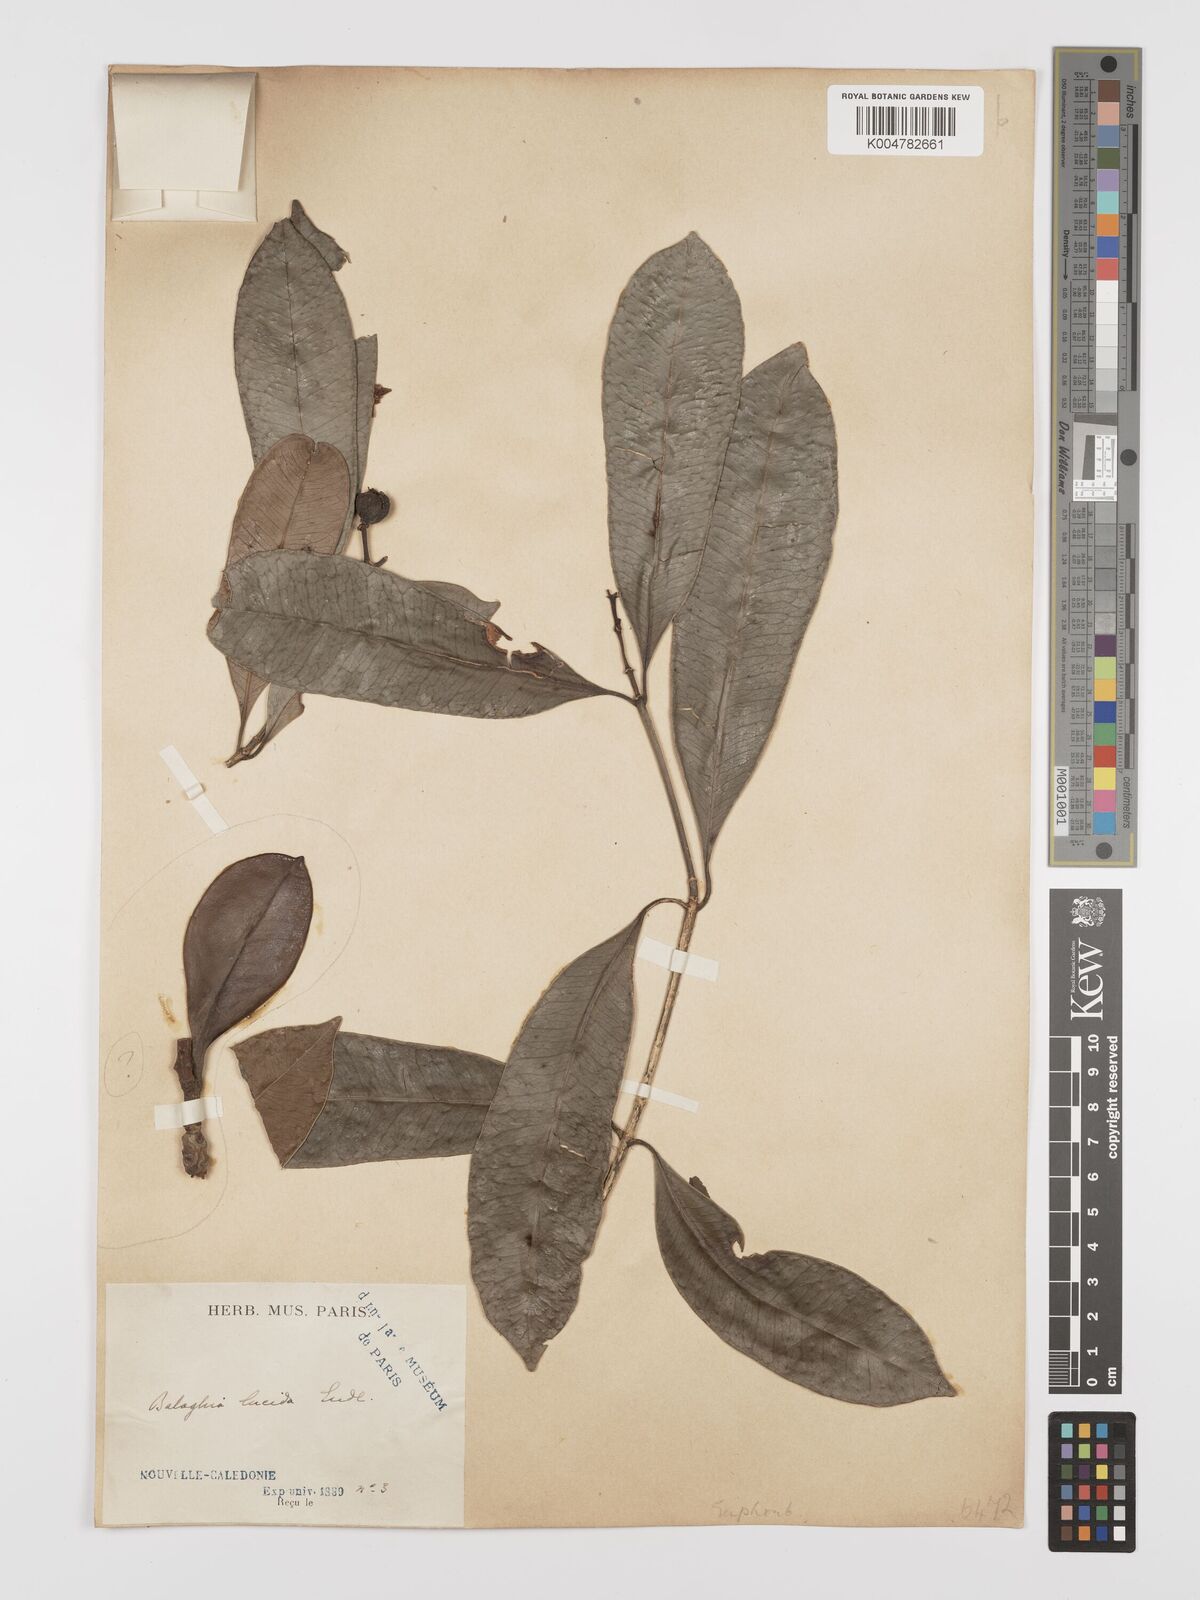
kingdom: Plantae
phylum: Tracheophyta
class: Magnoliopsida
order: Malpighiales
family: Euphorbiaceae
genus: Baloghia
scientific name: Baloghia inophylla
